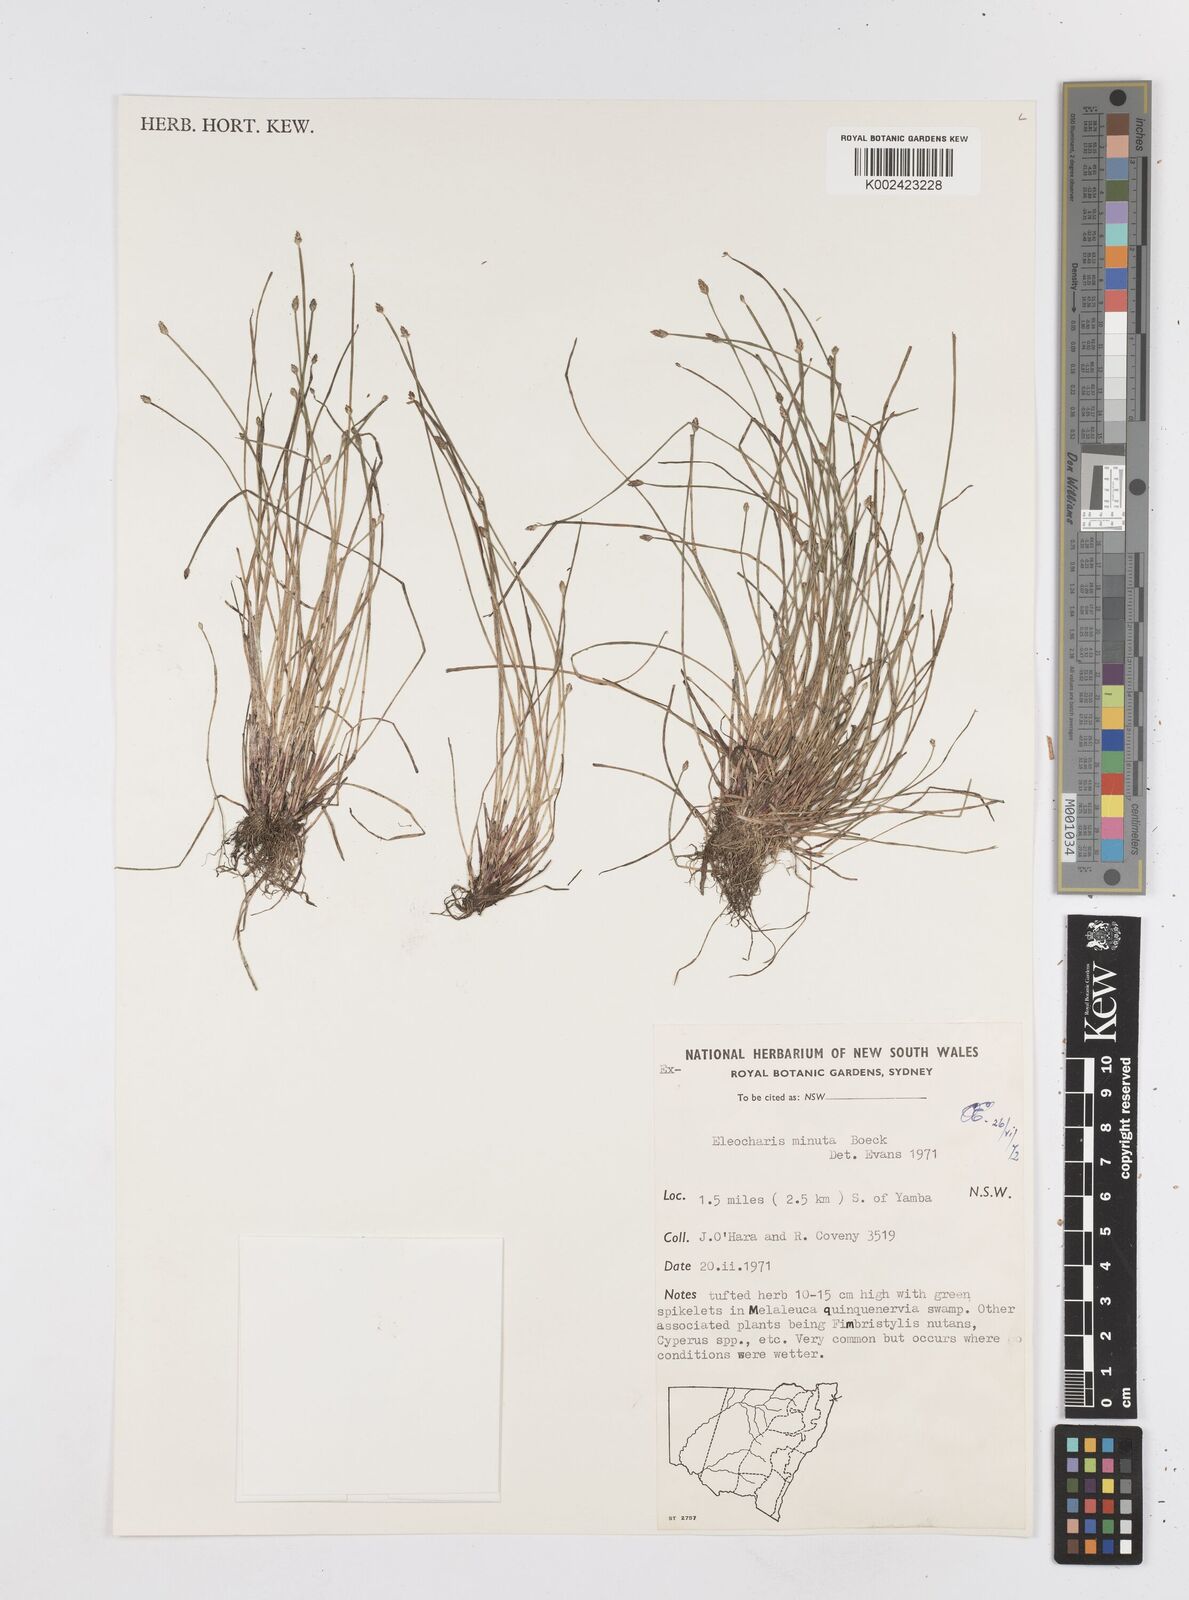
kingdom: Plantae
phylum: Tracheophyta
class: Liliopsida
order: Poales
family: Cyperaceae
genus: Eleocharis
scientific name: Eleocharis minuta
